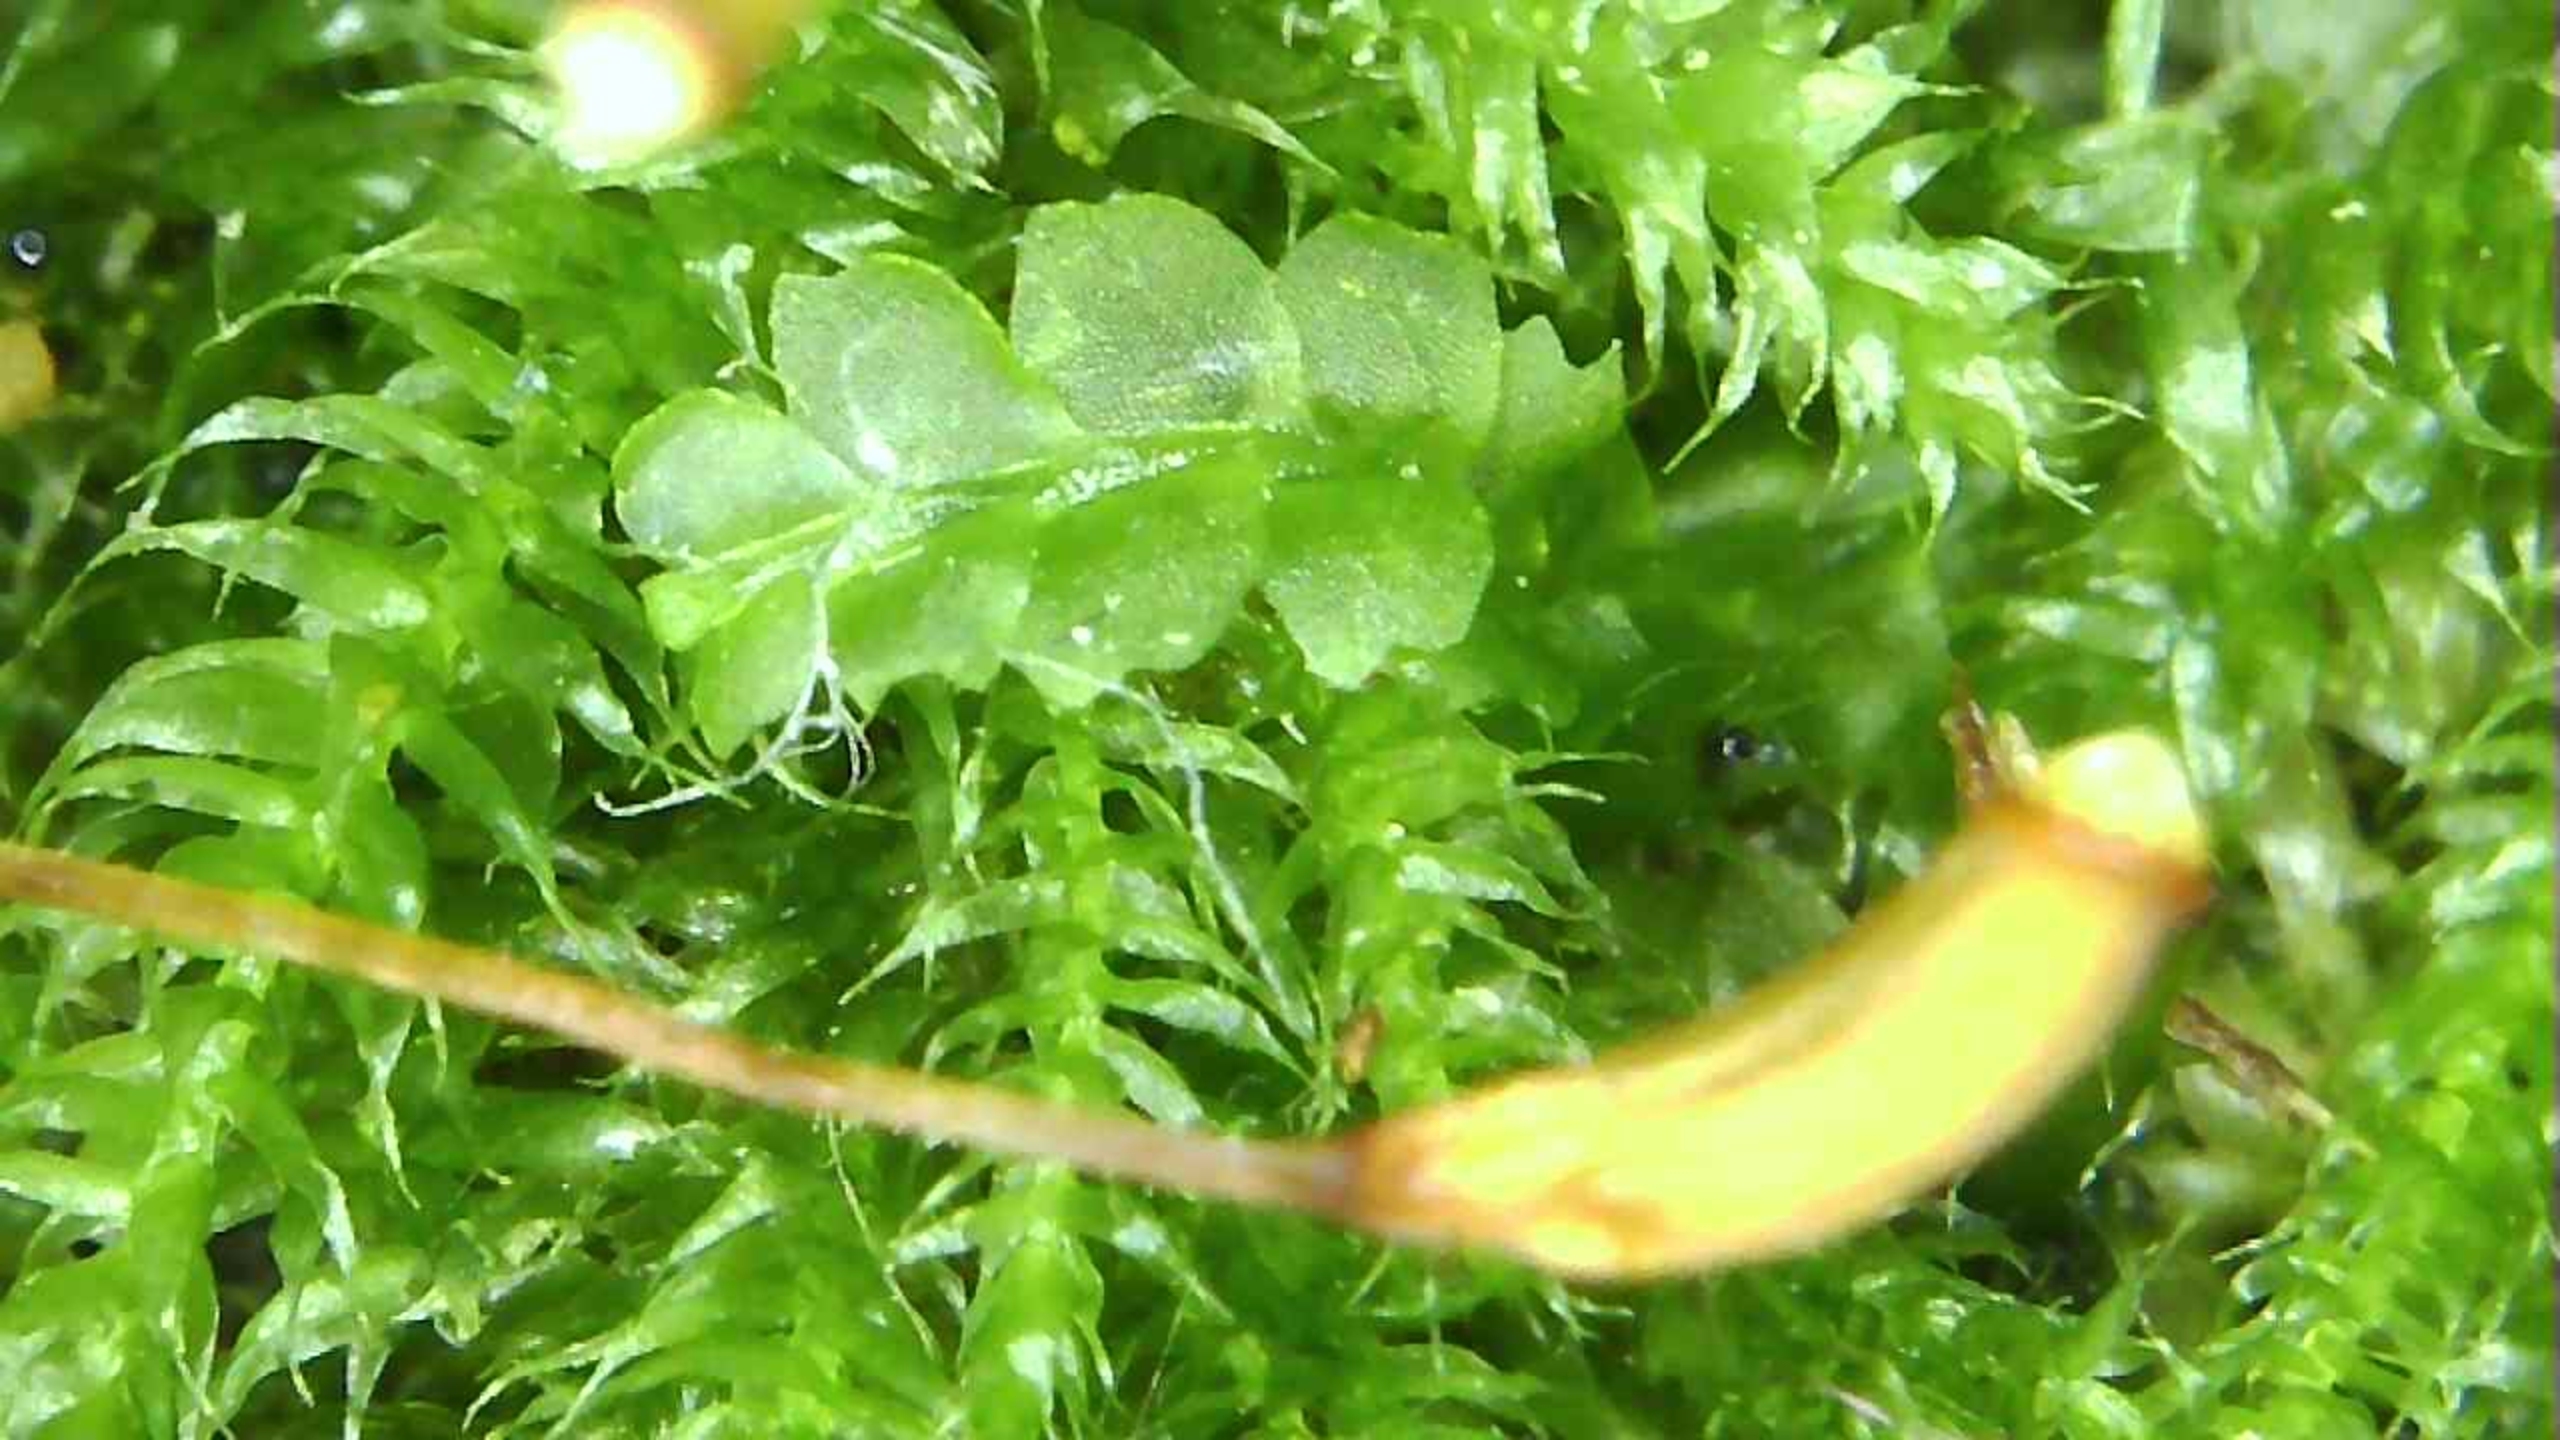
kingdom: Plantae
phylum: Marchantiophyta
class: Jungermanniopsida
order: Jungermanniales
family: Lophocoleaceae
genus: Lophocolea
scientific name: Lophocolea bidentata
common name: Sylspidset kamsvøb
